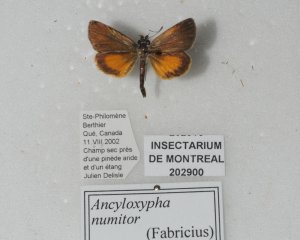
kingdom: Animalia
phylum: Arthropoda
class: Insecta
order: Lepidoptera
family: Hesperiidae
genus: Ancyloxypha
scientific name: Ancyloxypha numitor
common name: Least Skipper
